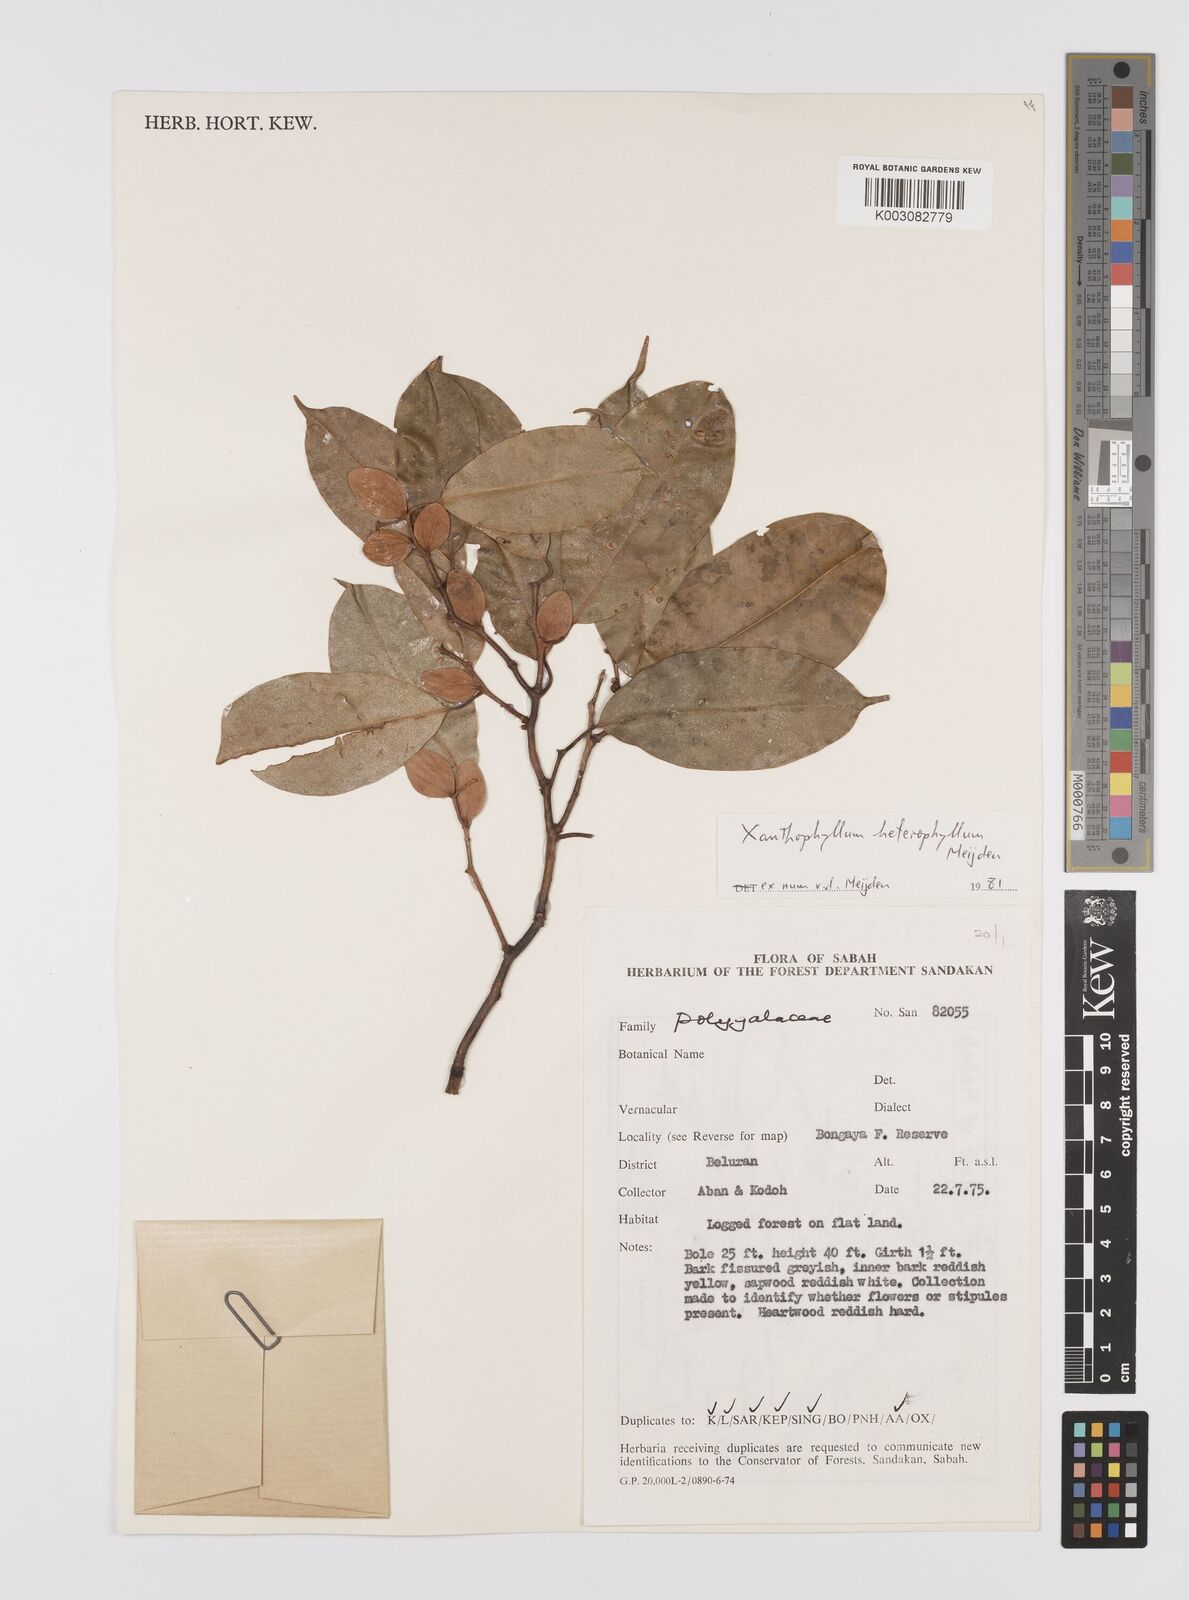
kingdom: Plantae
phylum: Tracheophyta
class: Magnoliopsida
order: Fabales
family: Polygalaceae
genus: Xanthophyllum
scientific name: Xanthophyllum heterophyllum
